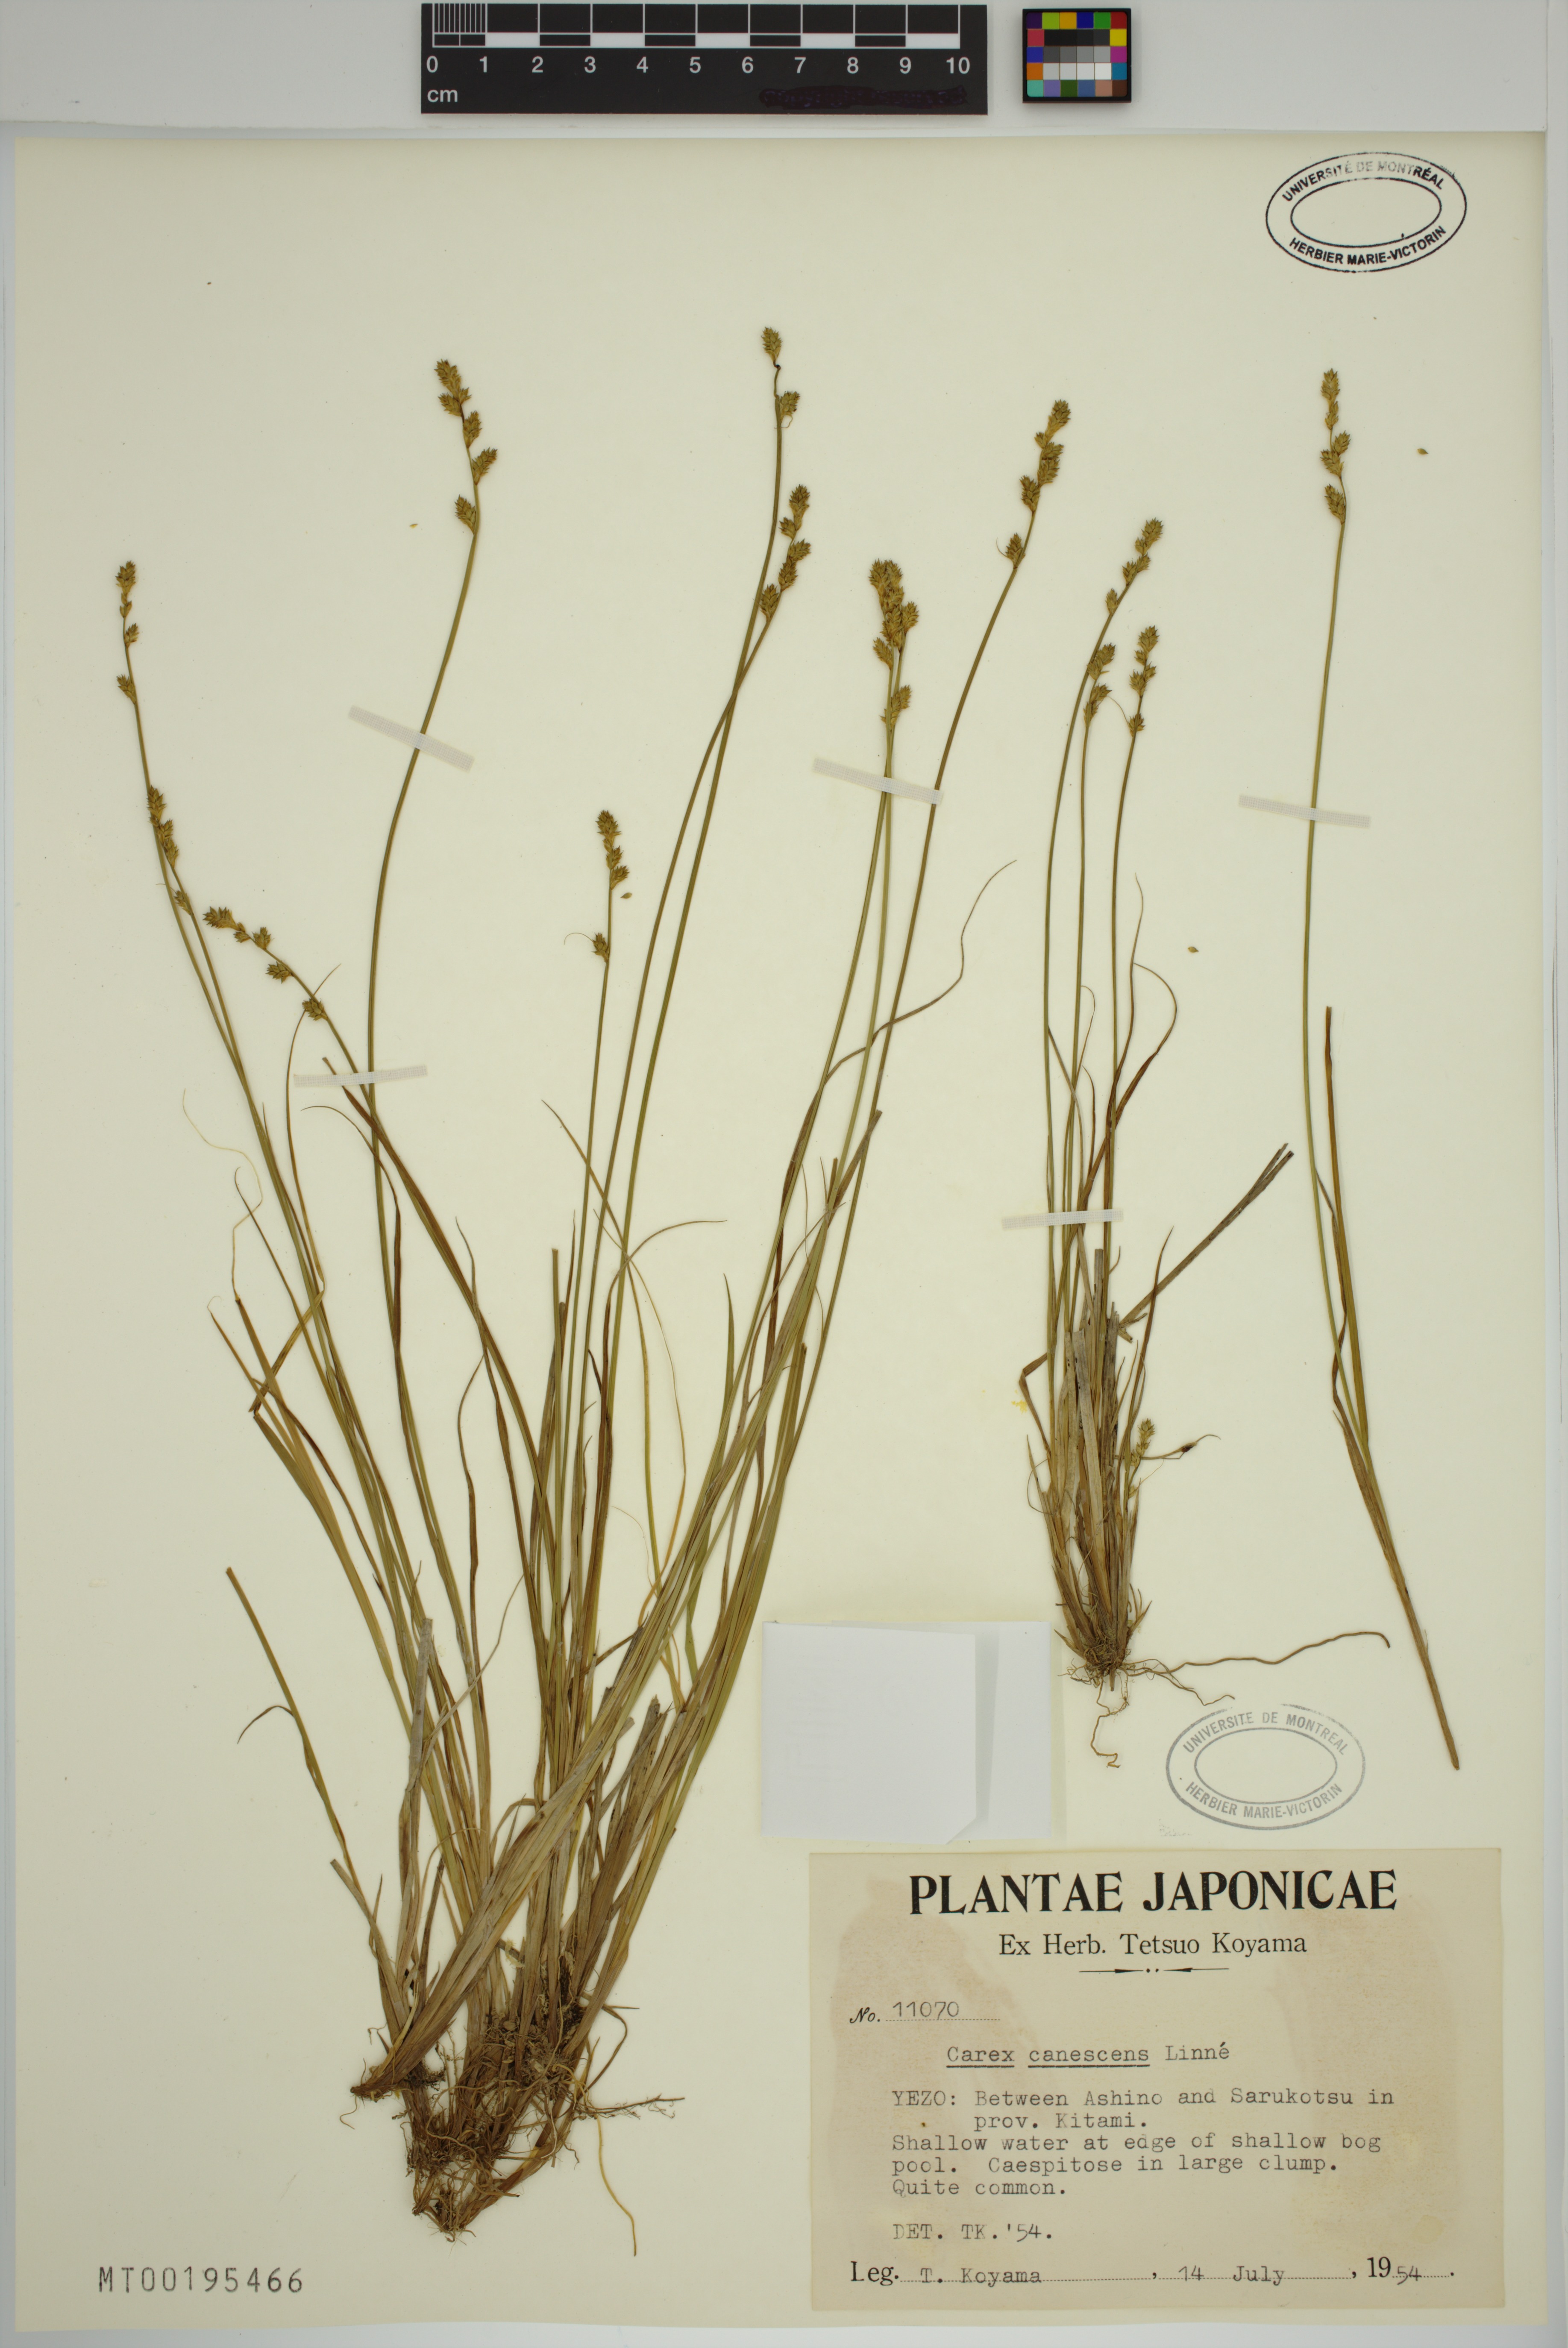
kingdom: Plantae
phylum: Tracheophyta
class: Liliopsida
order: Poales
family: Cyperaceae
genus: Carex
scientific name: Carex canescens
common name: White sedge
